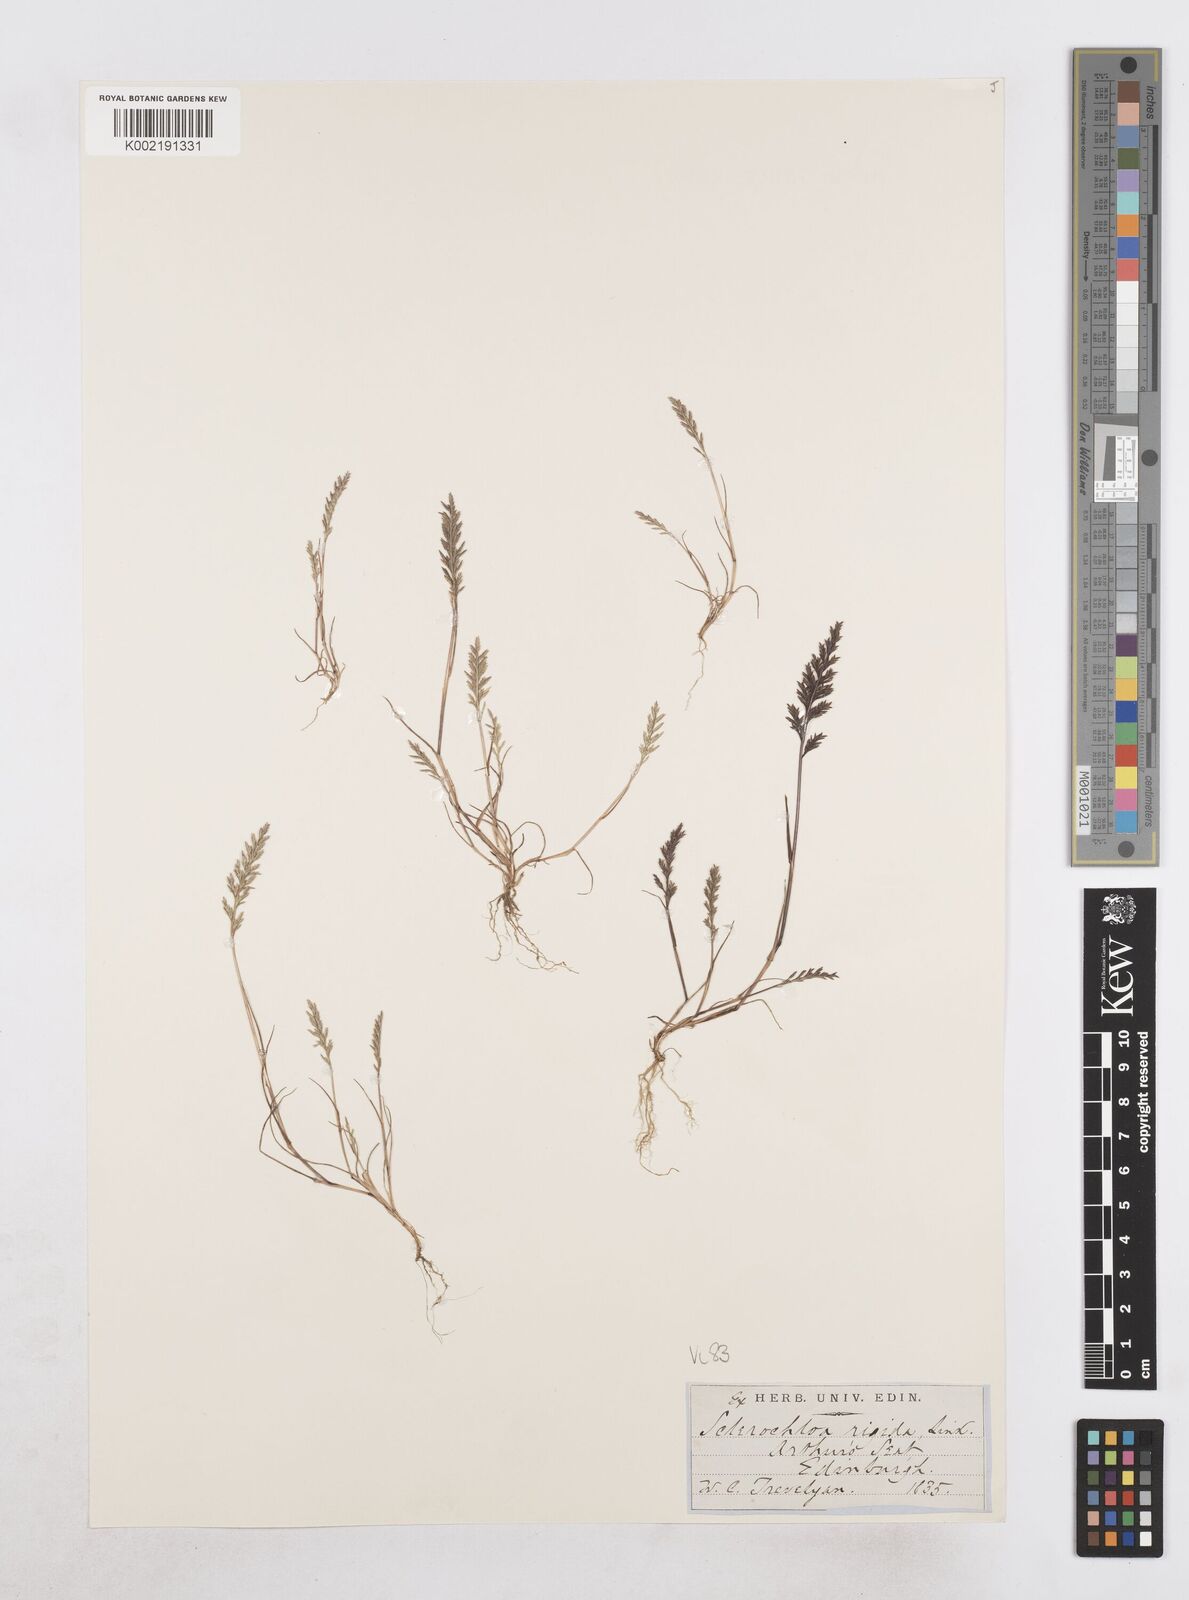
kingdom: Plantae
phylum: Tracheophyta
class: Liliopsida
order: Poales
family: Poaceae
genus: Catapodium
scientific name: Catapodium rigidum
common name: Fern-grass
